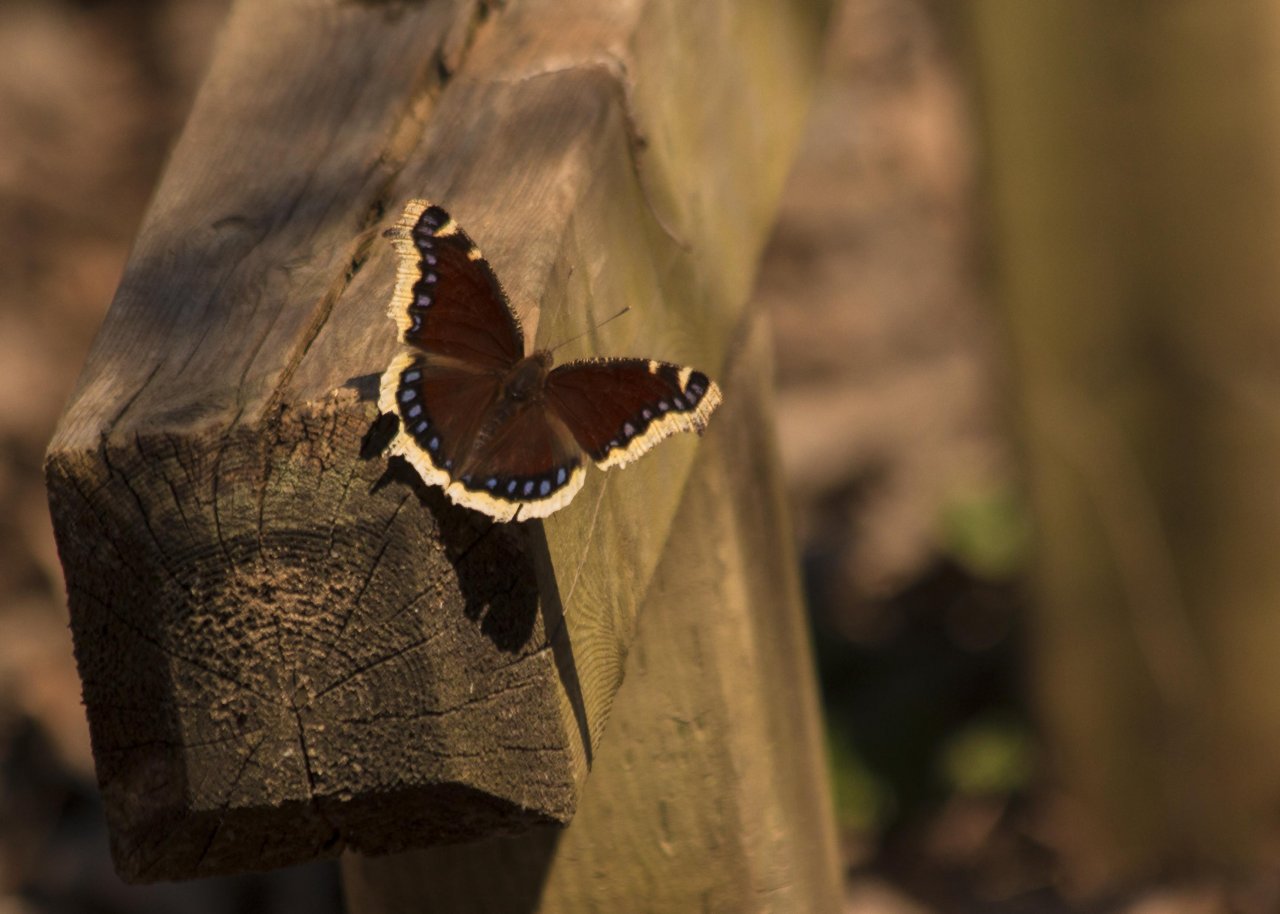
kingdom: Animalia
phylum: Arthropoda
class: Insecta
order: Lepidoptera
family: Nymphalidae
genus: Nymphalis
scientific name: Nymphalis antiopa
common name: Mourning Cloak
